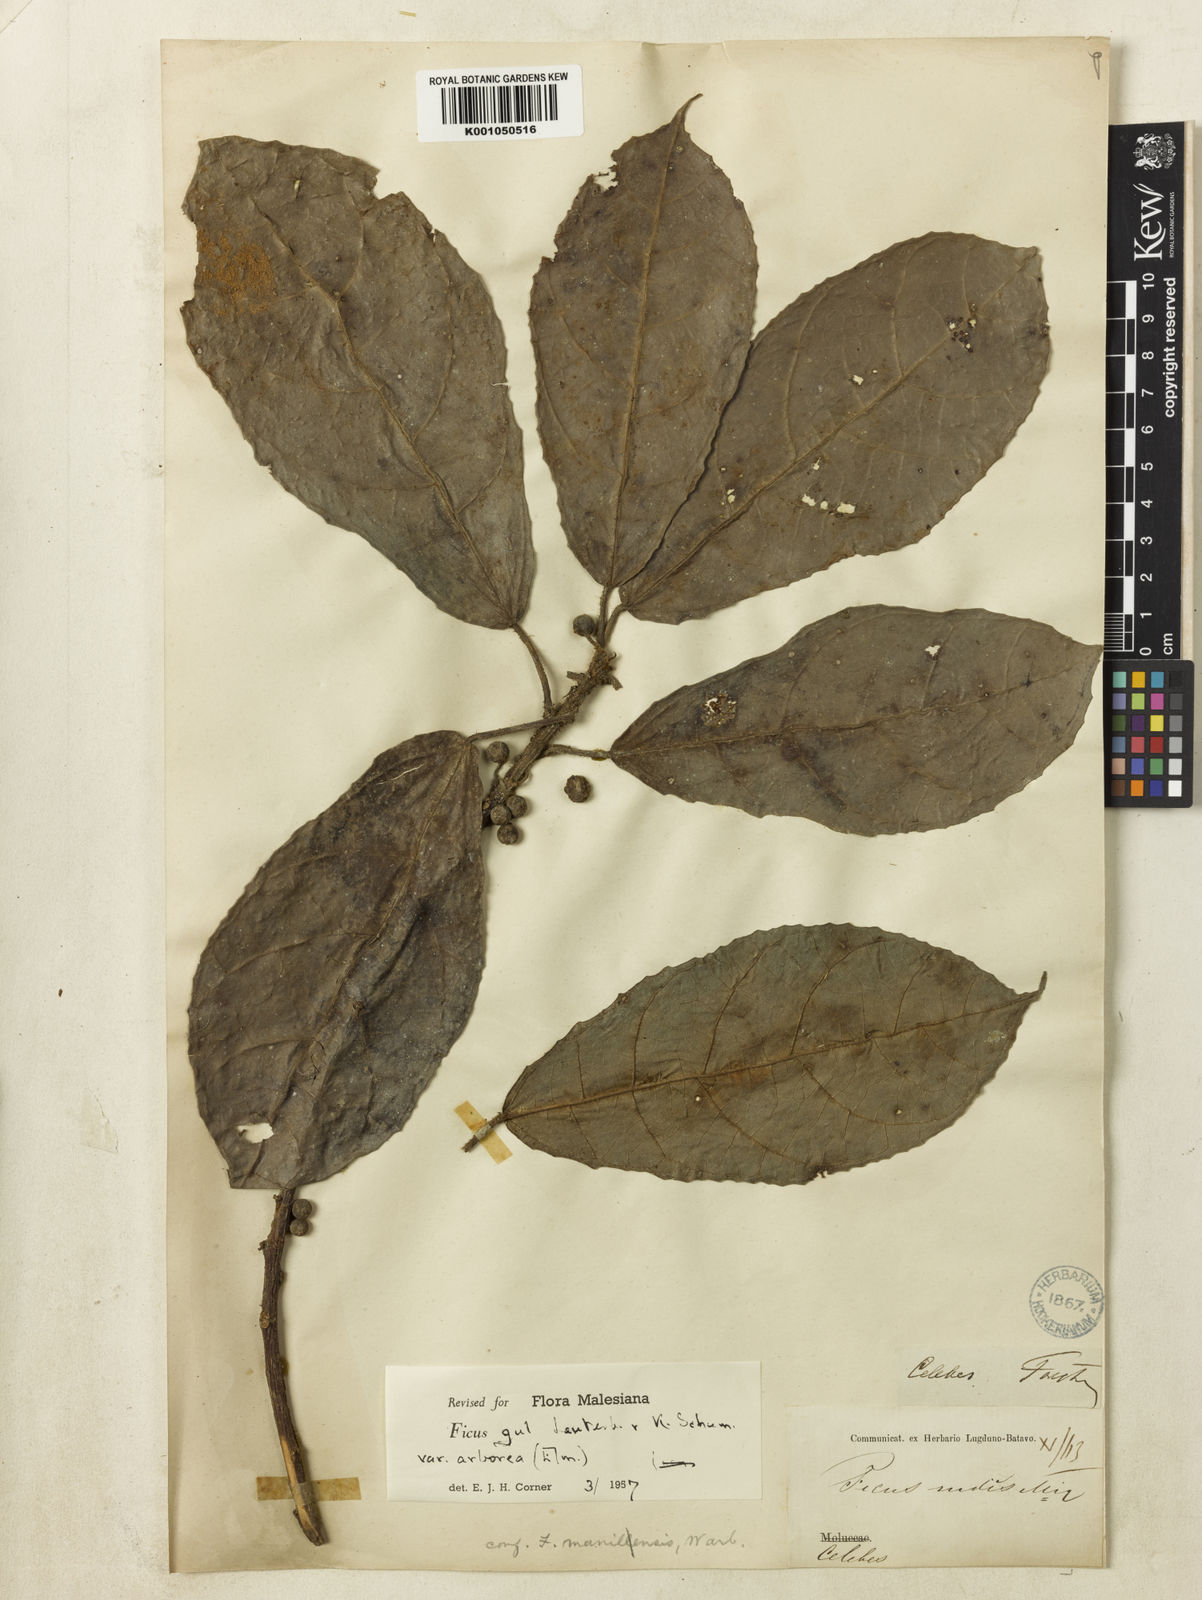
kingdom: Plantae
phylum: Tracheophyta
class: Magnoliopsida
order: Rosales
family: Moraceae
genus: Ficus
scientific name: Ficus gul
